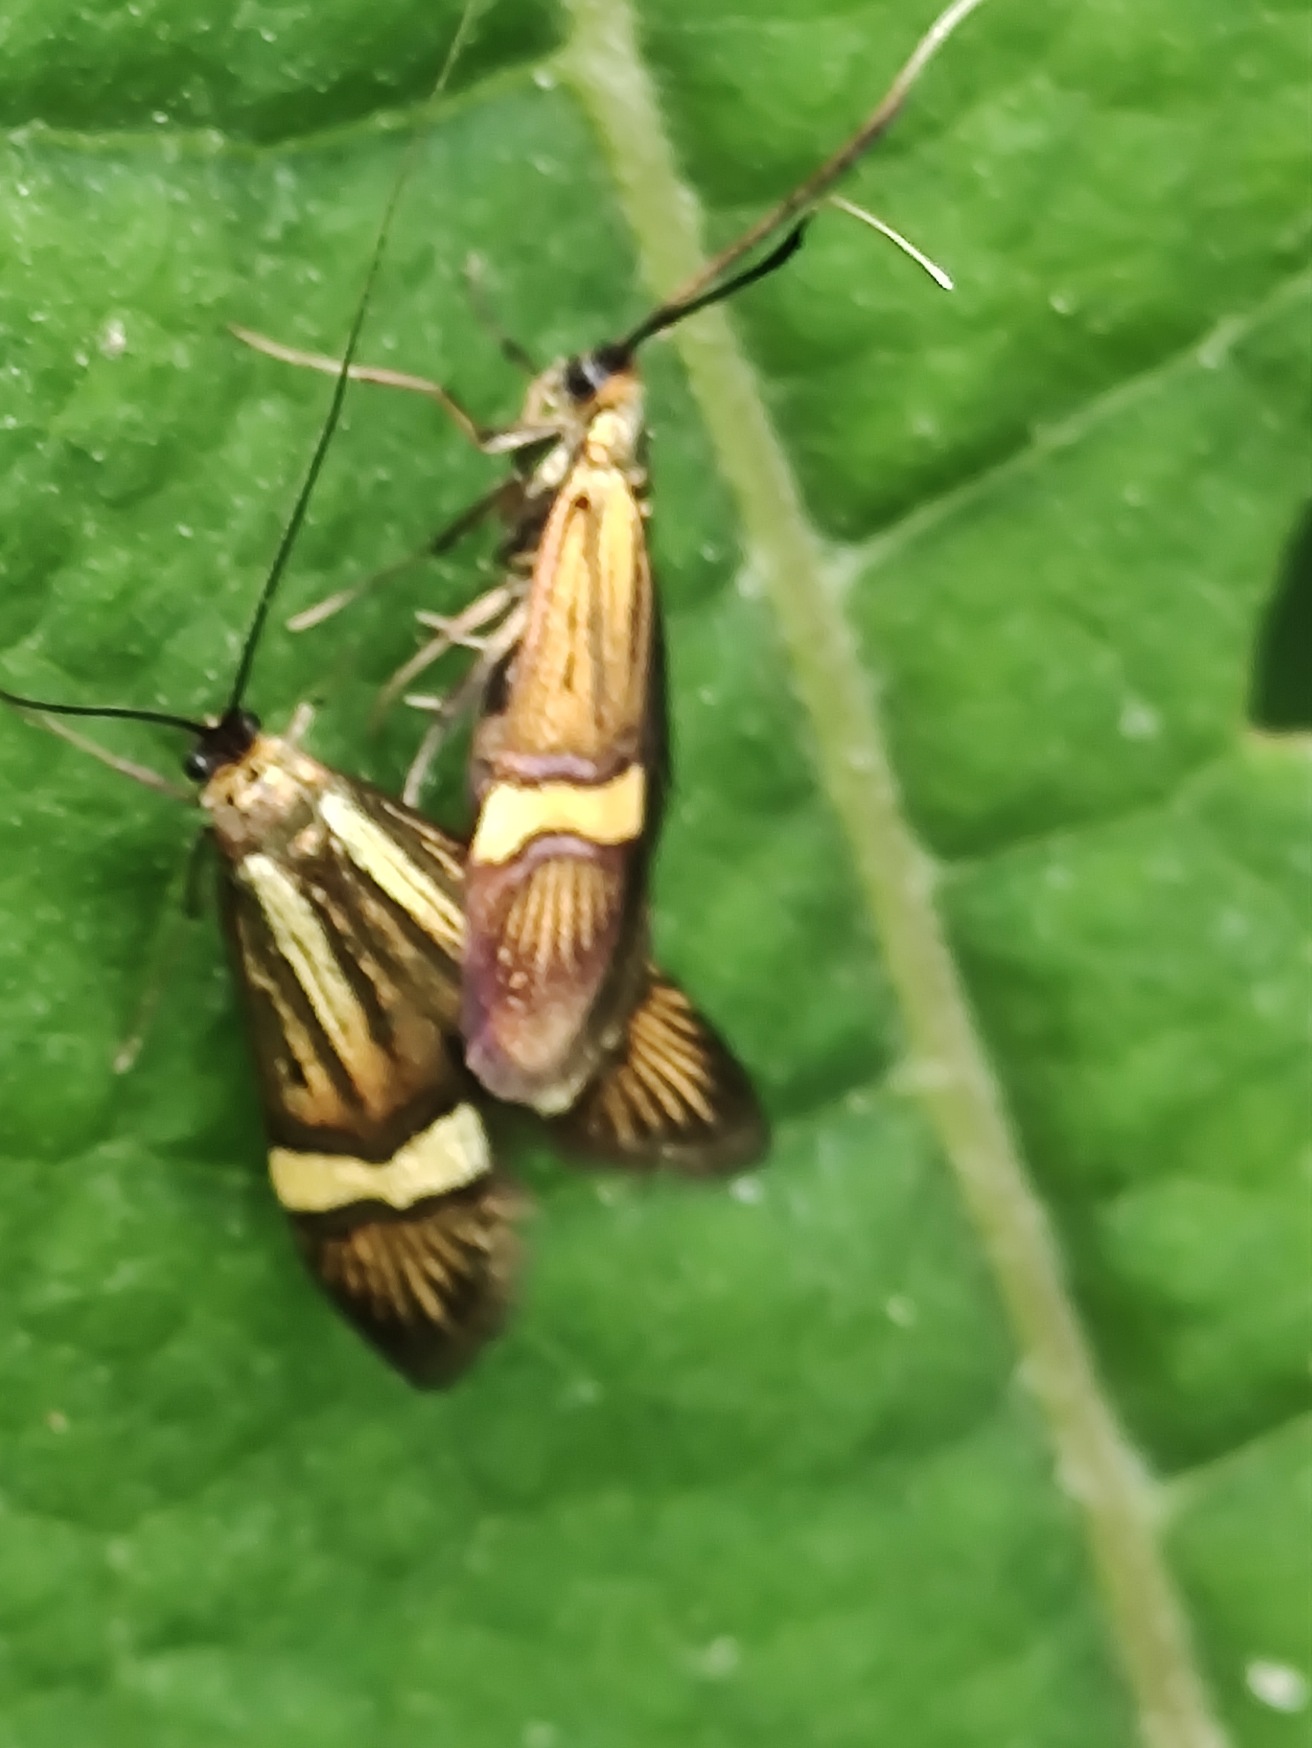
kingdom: Animalia
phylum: Arthropoda
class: Insecta
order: Lepidoptera
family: Adelidae
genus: Nemophora
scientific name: Nemophora degeerella
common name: Løvskovslanghornsmøl
